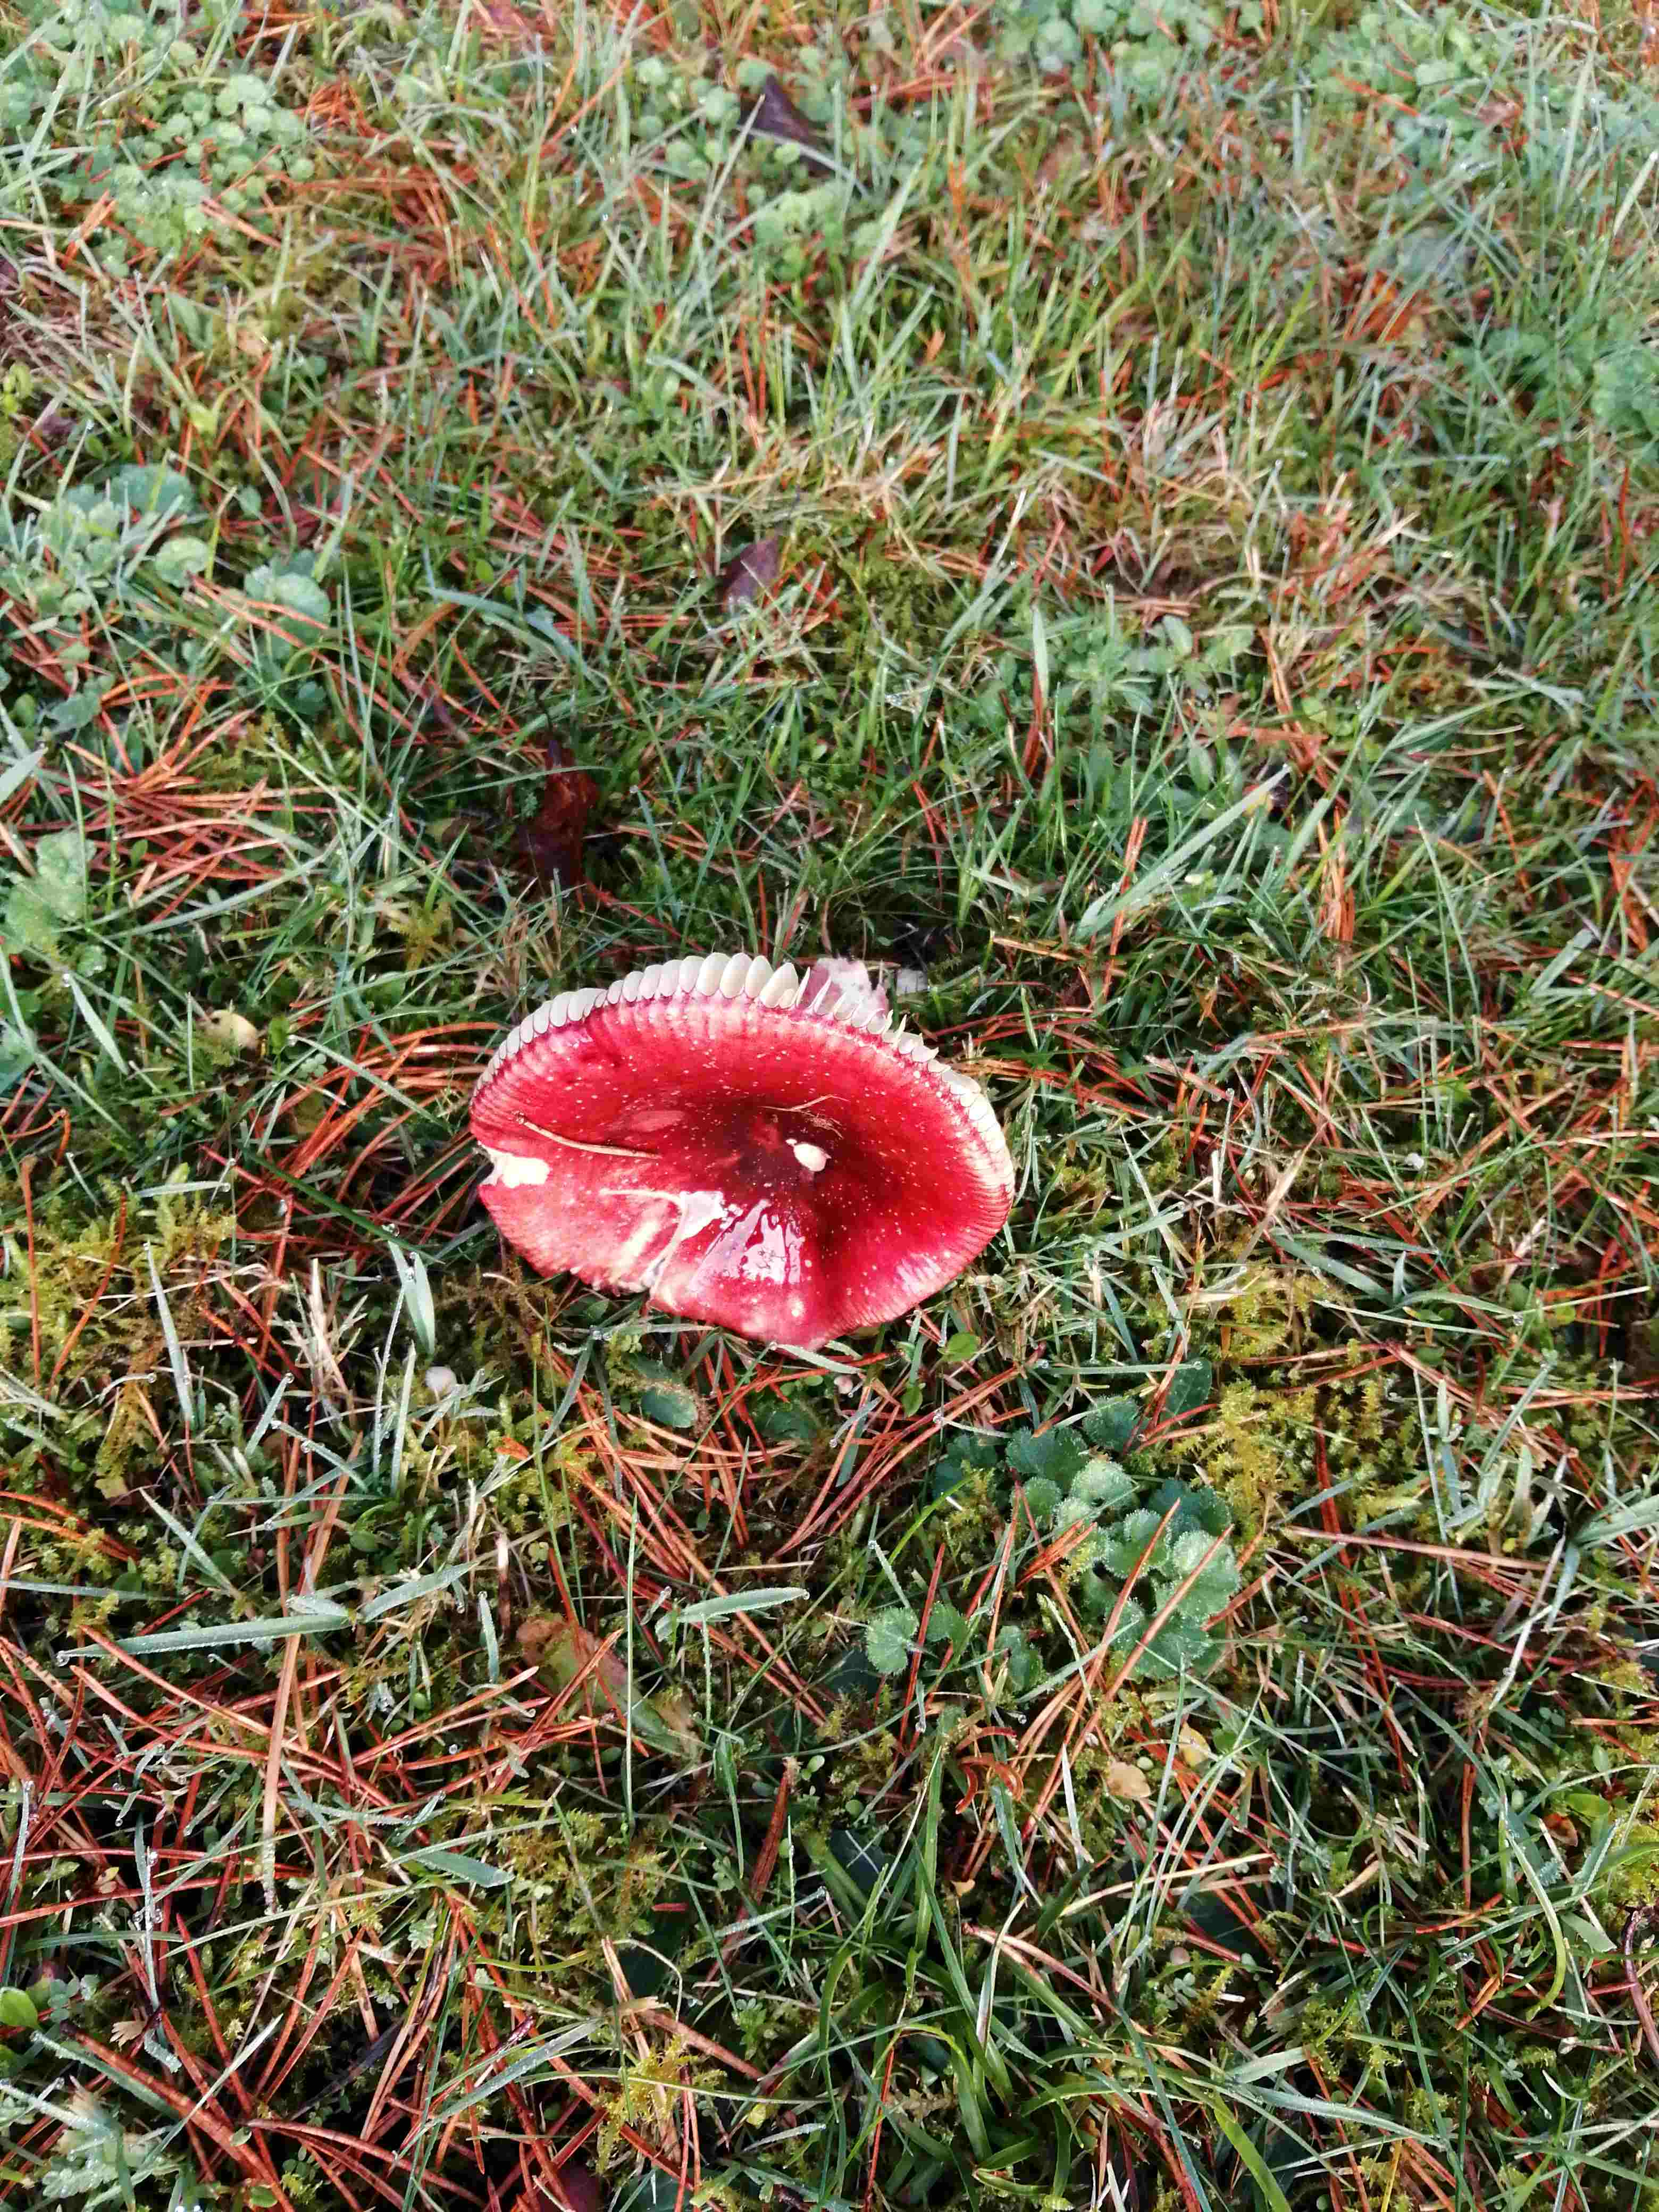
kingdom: Fungi
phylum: Basidiomycota
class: Agaricomycetes
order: Russulales
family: Russulaceae
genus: Russula
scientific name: Russula
